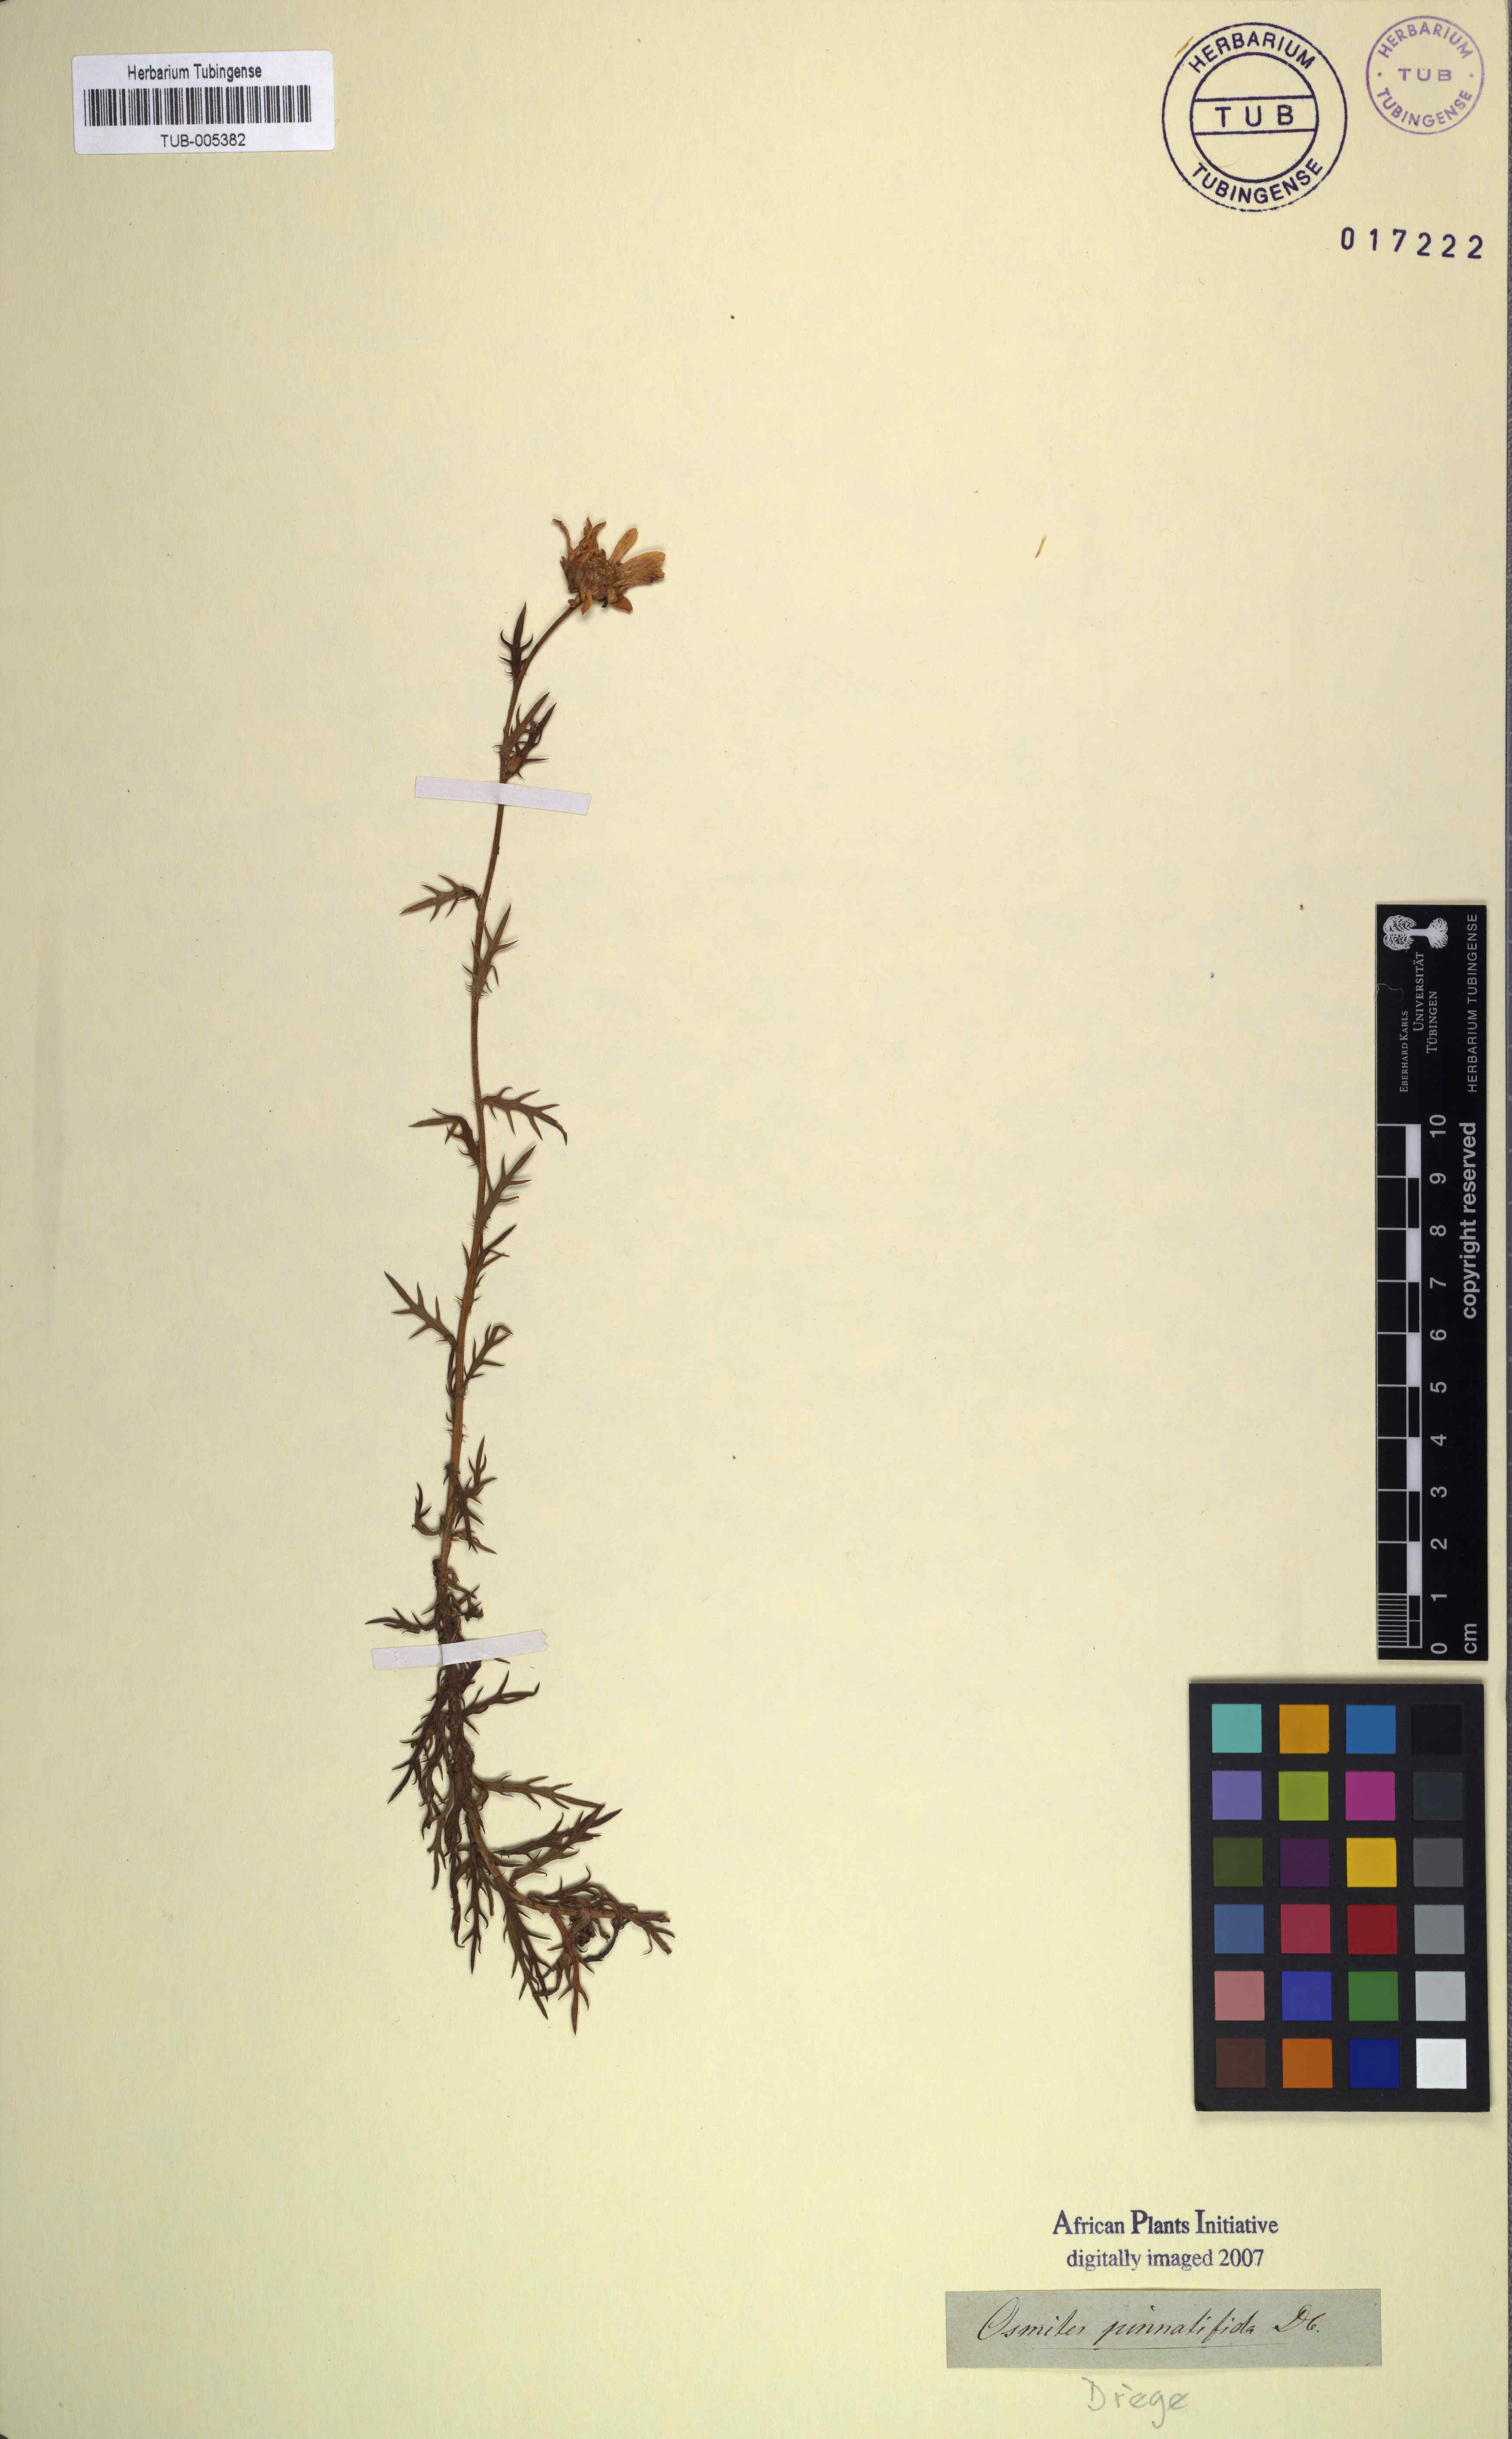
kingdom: Plantae
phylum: Tracheophyta
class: Magnoliopsida
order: Asterales
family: Asteraceae
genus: Osmitopsis
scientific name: Osmitopsis pinnatifida
